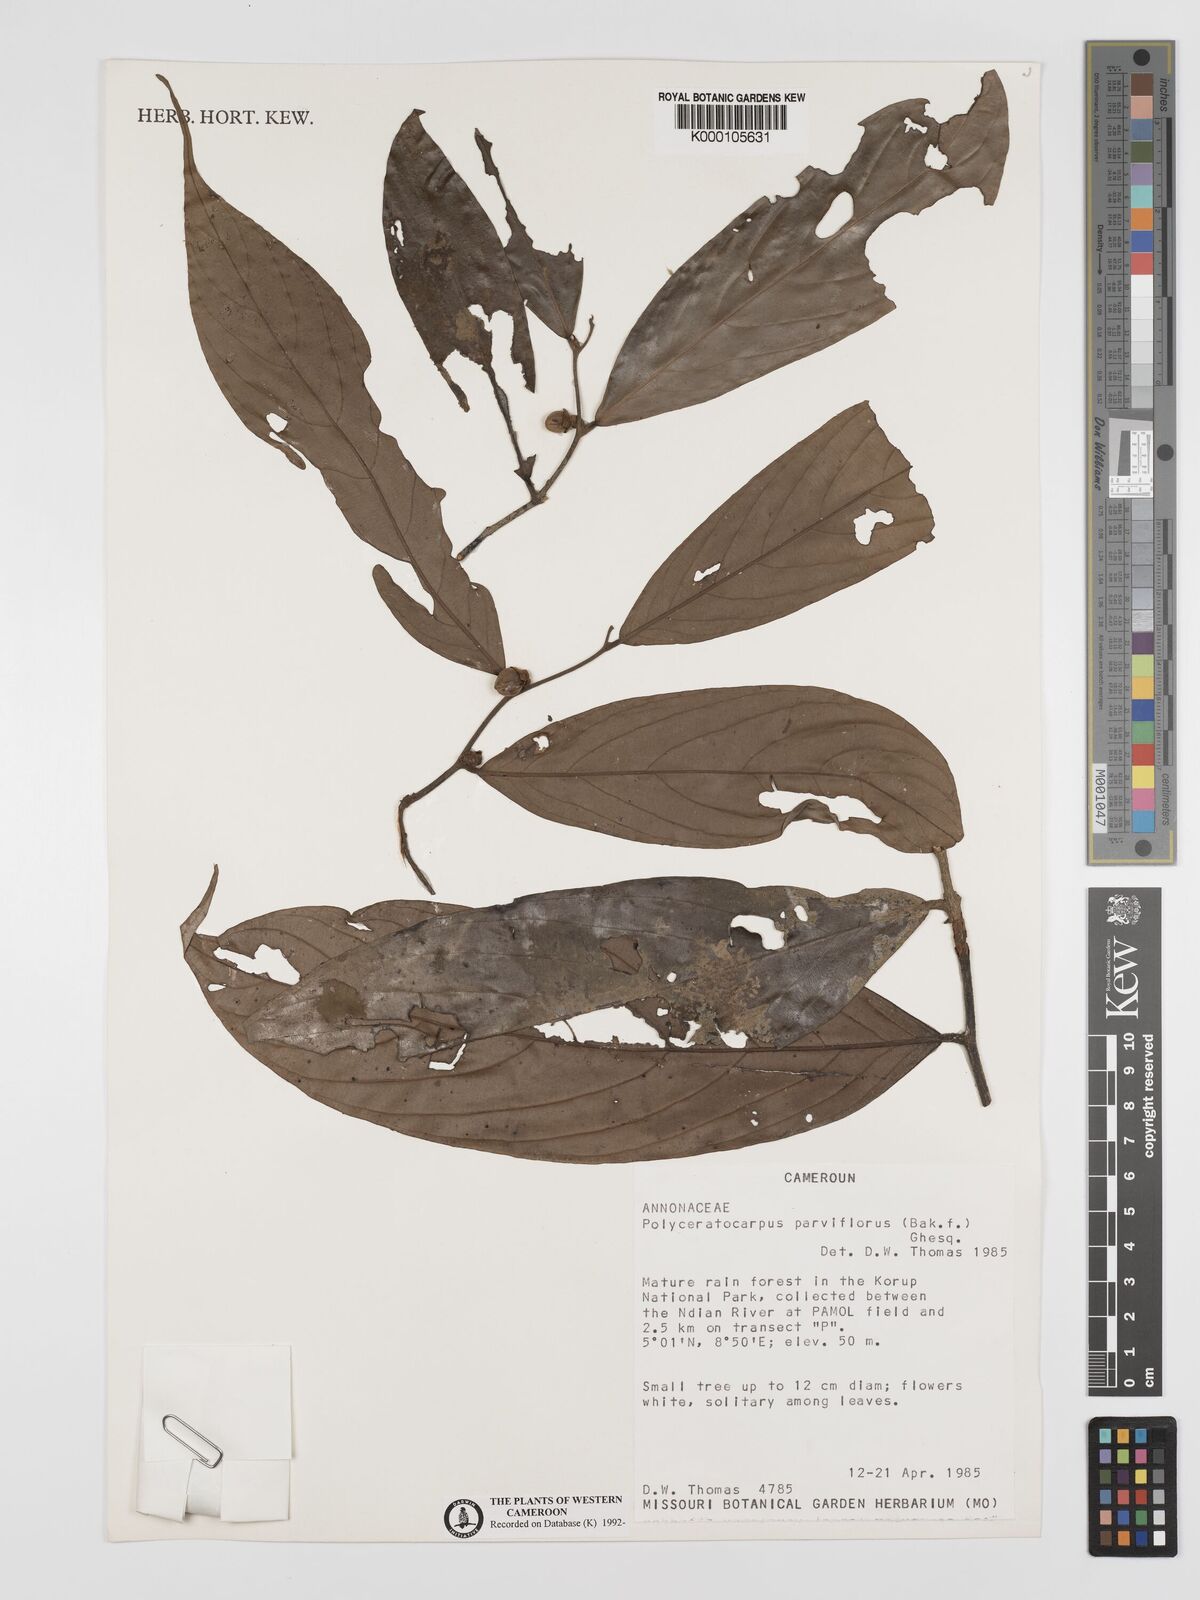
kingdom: Plantae
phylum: Tracheophyta
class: Magnoliopsida
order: Magnoliales
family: Annonaceae
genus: Polyceratocarpus
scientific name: Polyceratocarpus parviflorus
